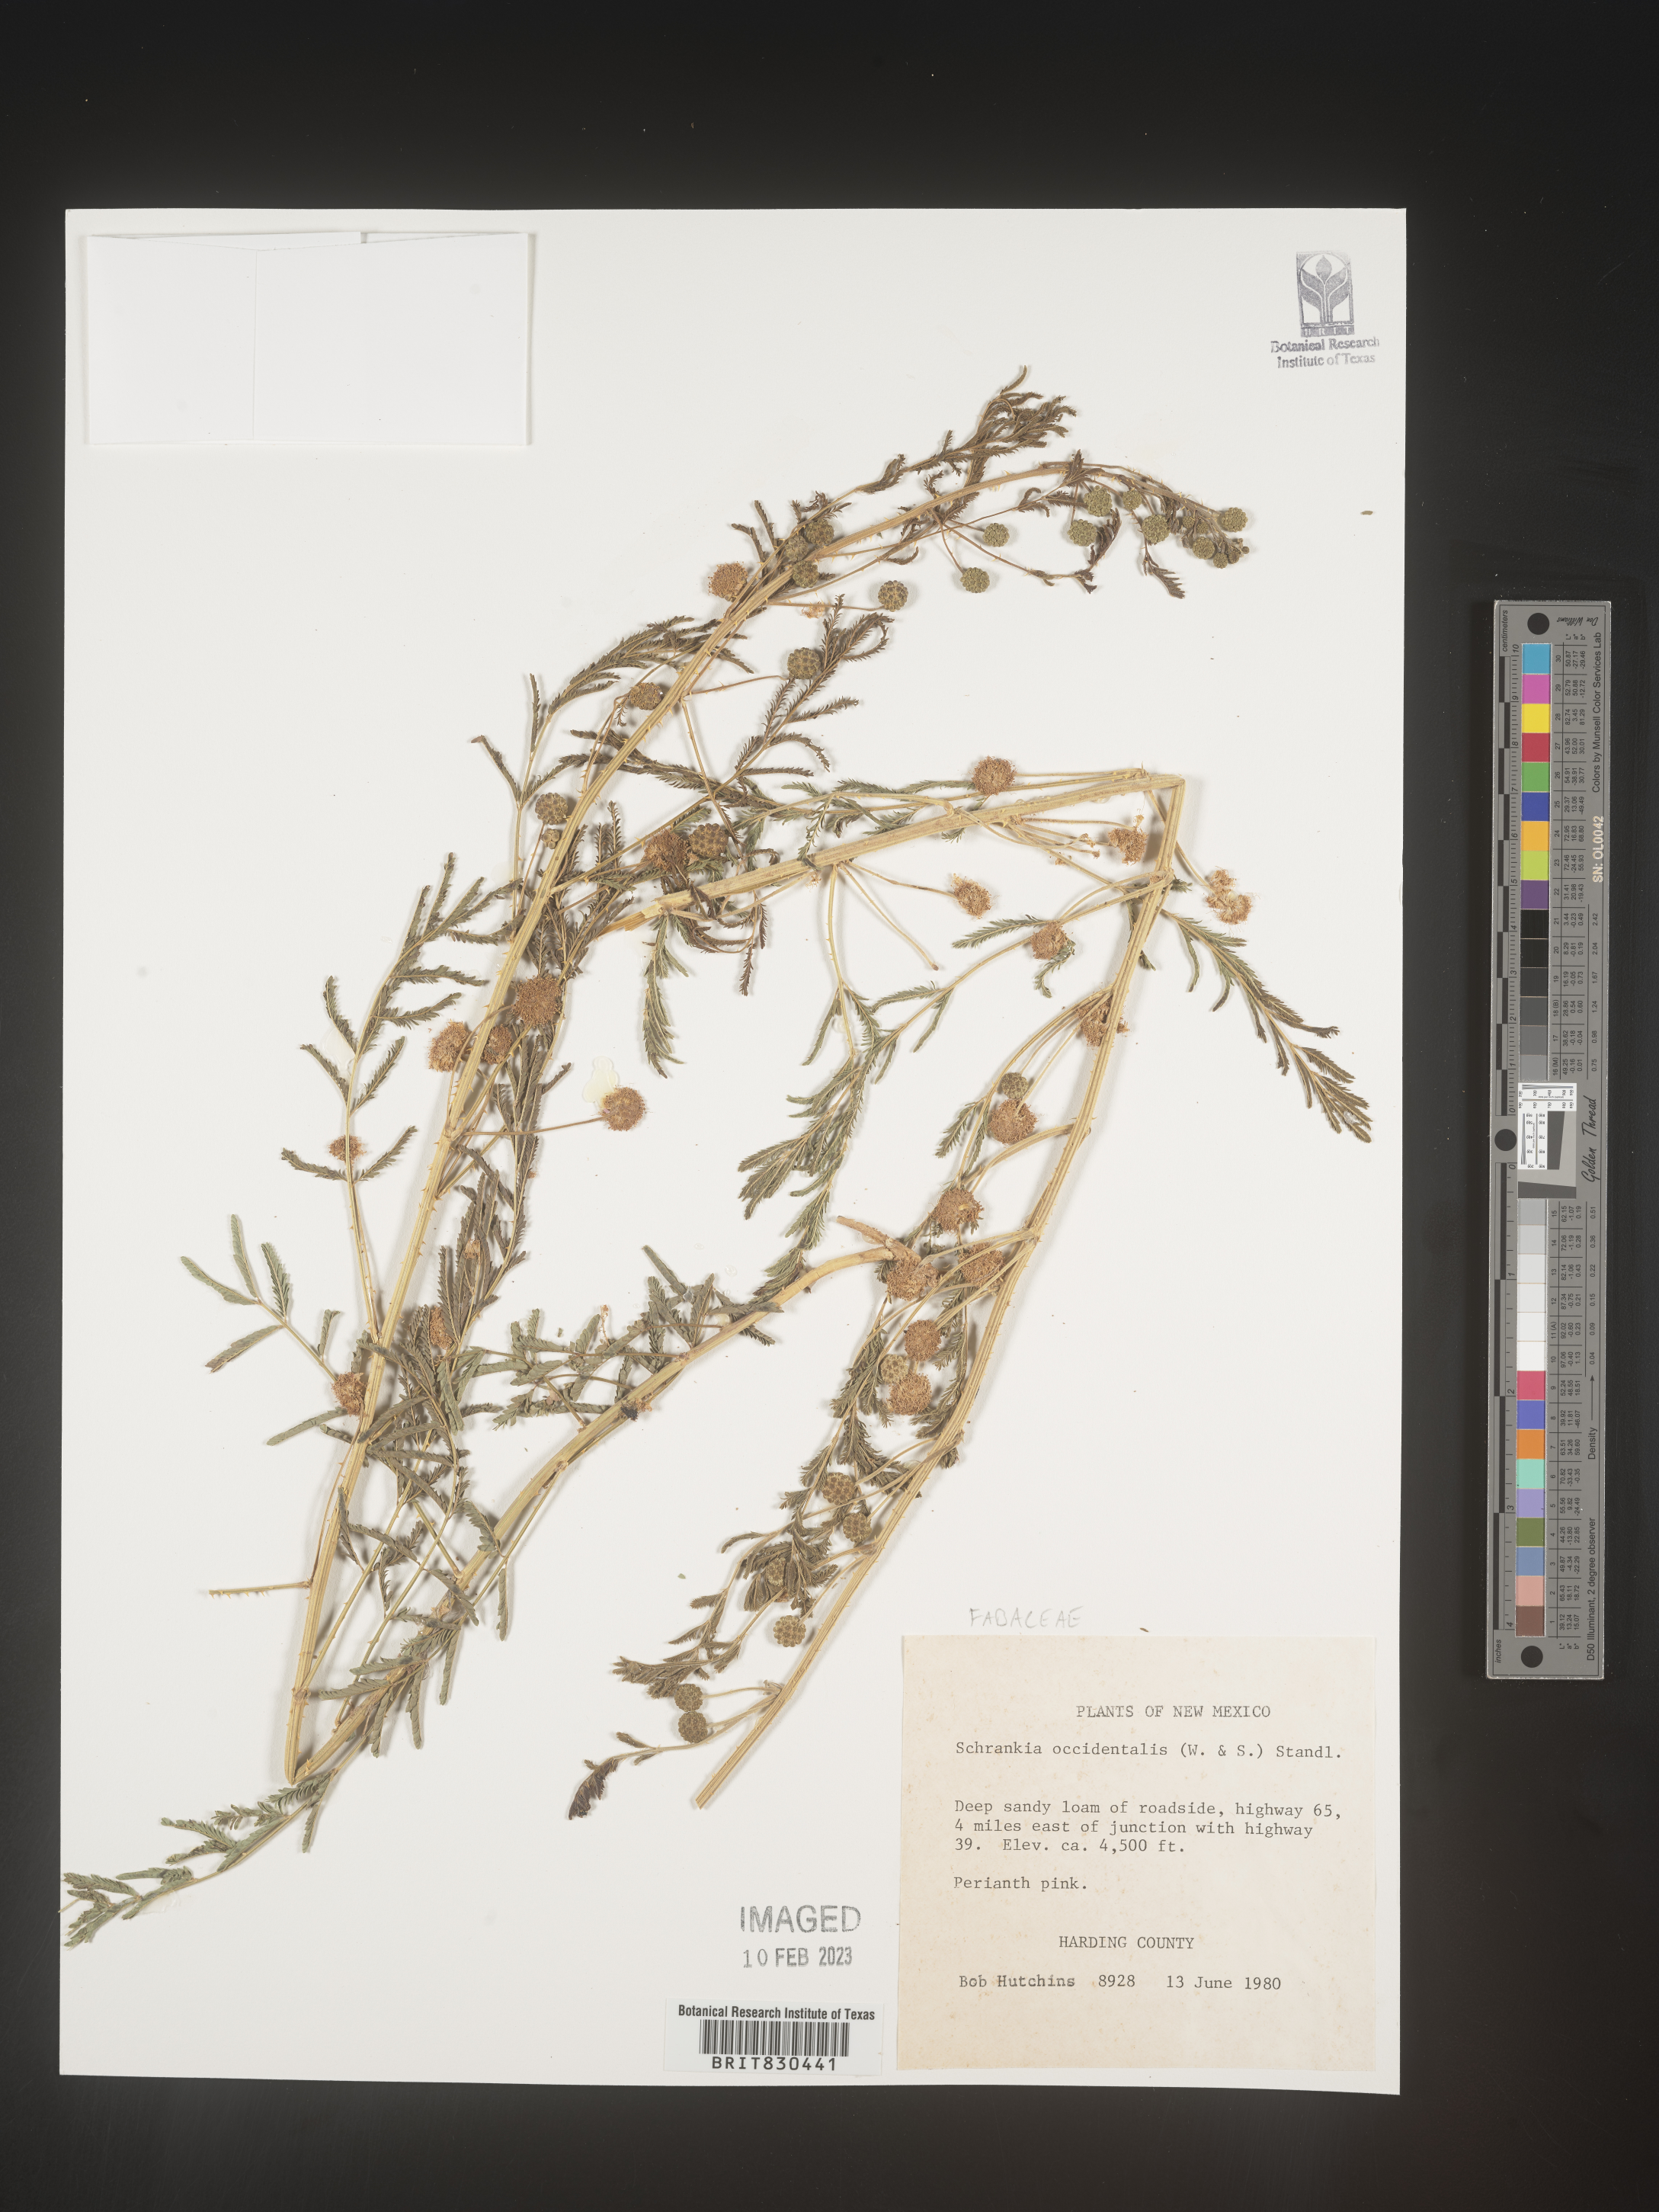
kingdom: Plantae
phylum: Tracheophyta
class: Magnoliopsida
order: Fabales
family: Fabaceae
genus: Mimosa
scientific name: Mimosa
